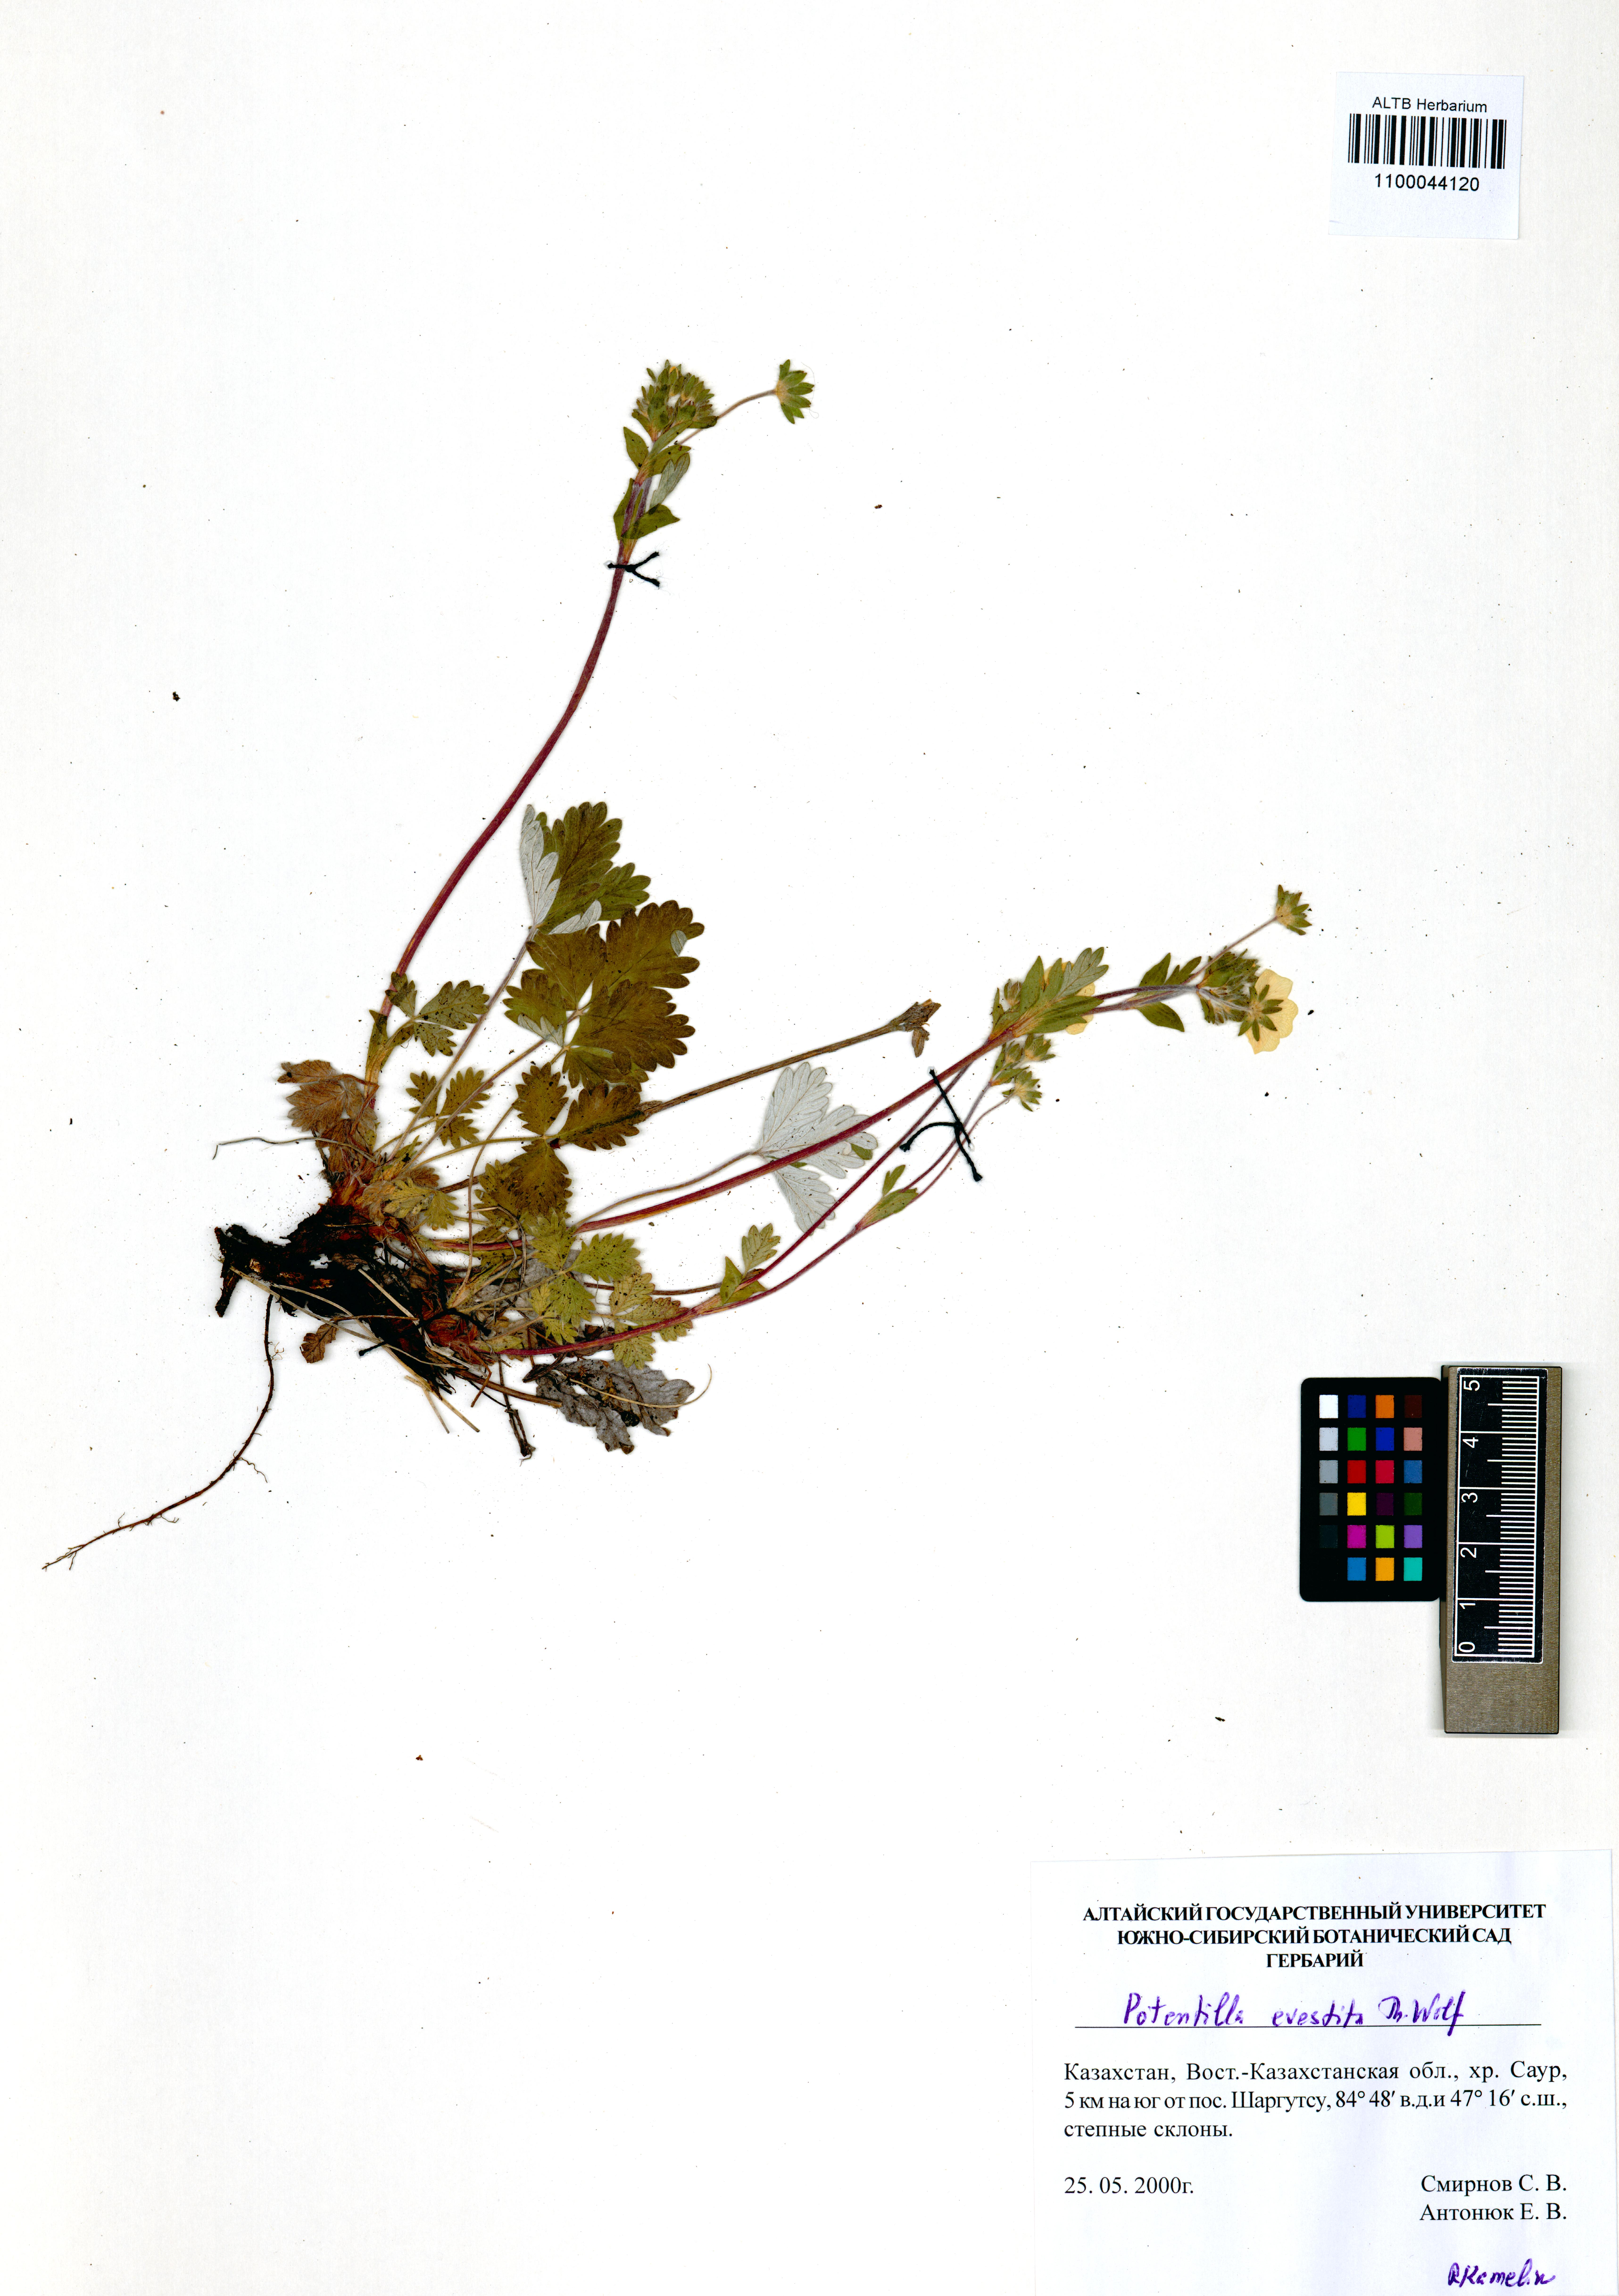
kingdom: Plantae
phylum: Tracheophyta
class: Magnoliopsida
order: Rosales
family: Rosaceae
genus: Potentilla
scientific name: Potentilla evestita
